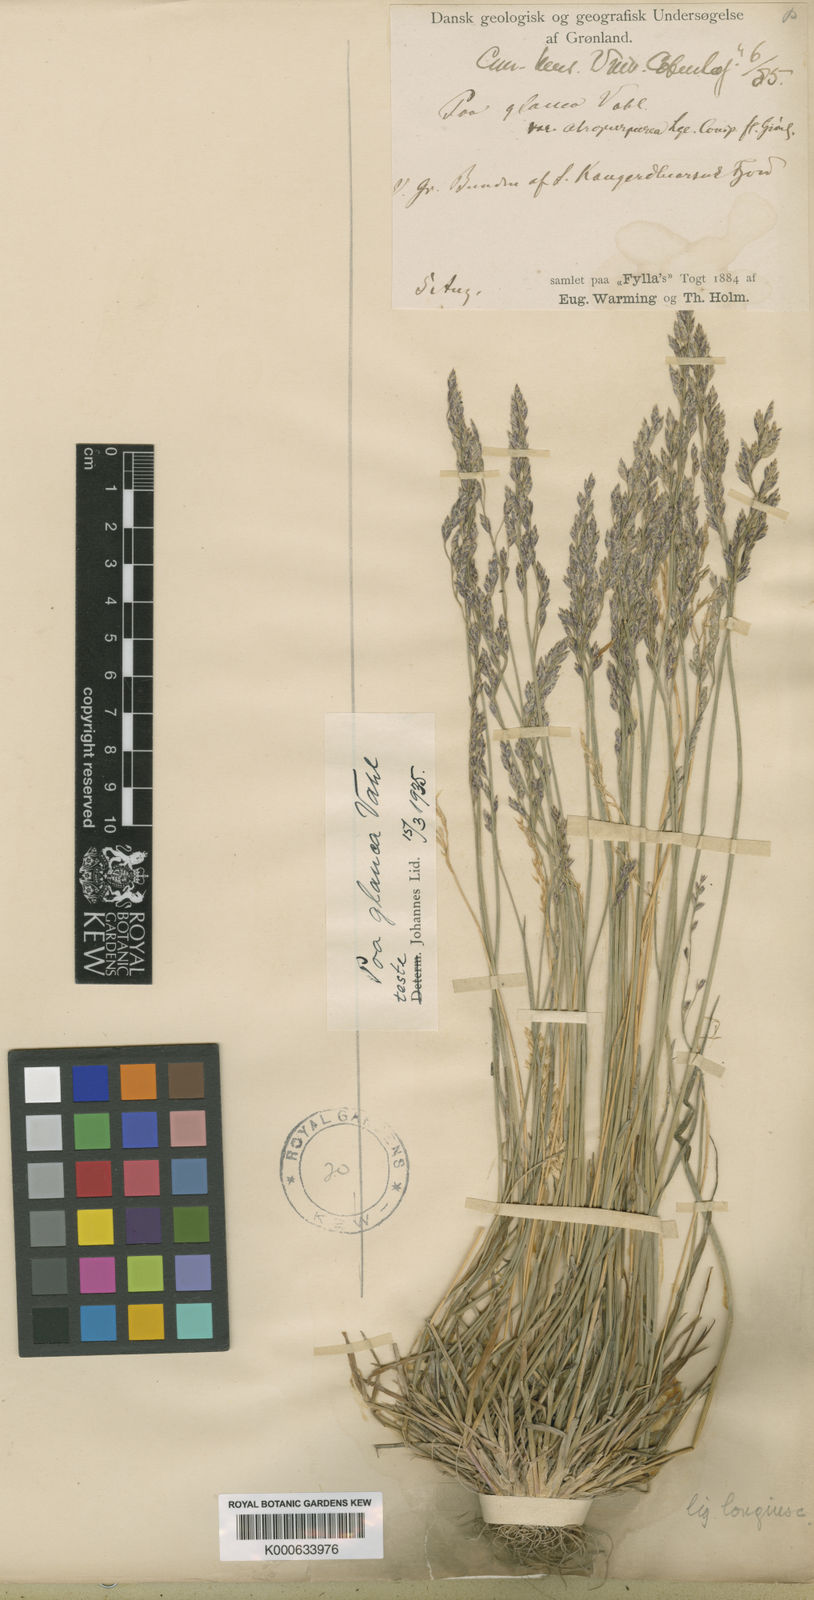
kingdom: Plantae
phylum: Tracheophyta
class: Liliopsida
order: Poales
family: Poaceae
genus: Poa
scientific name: Poa glauca
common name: Glaucous bluegrass
